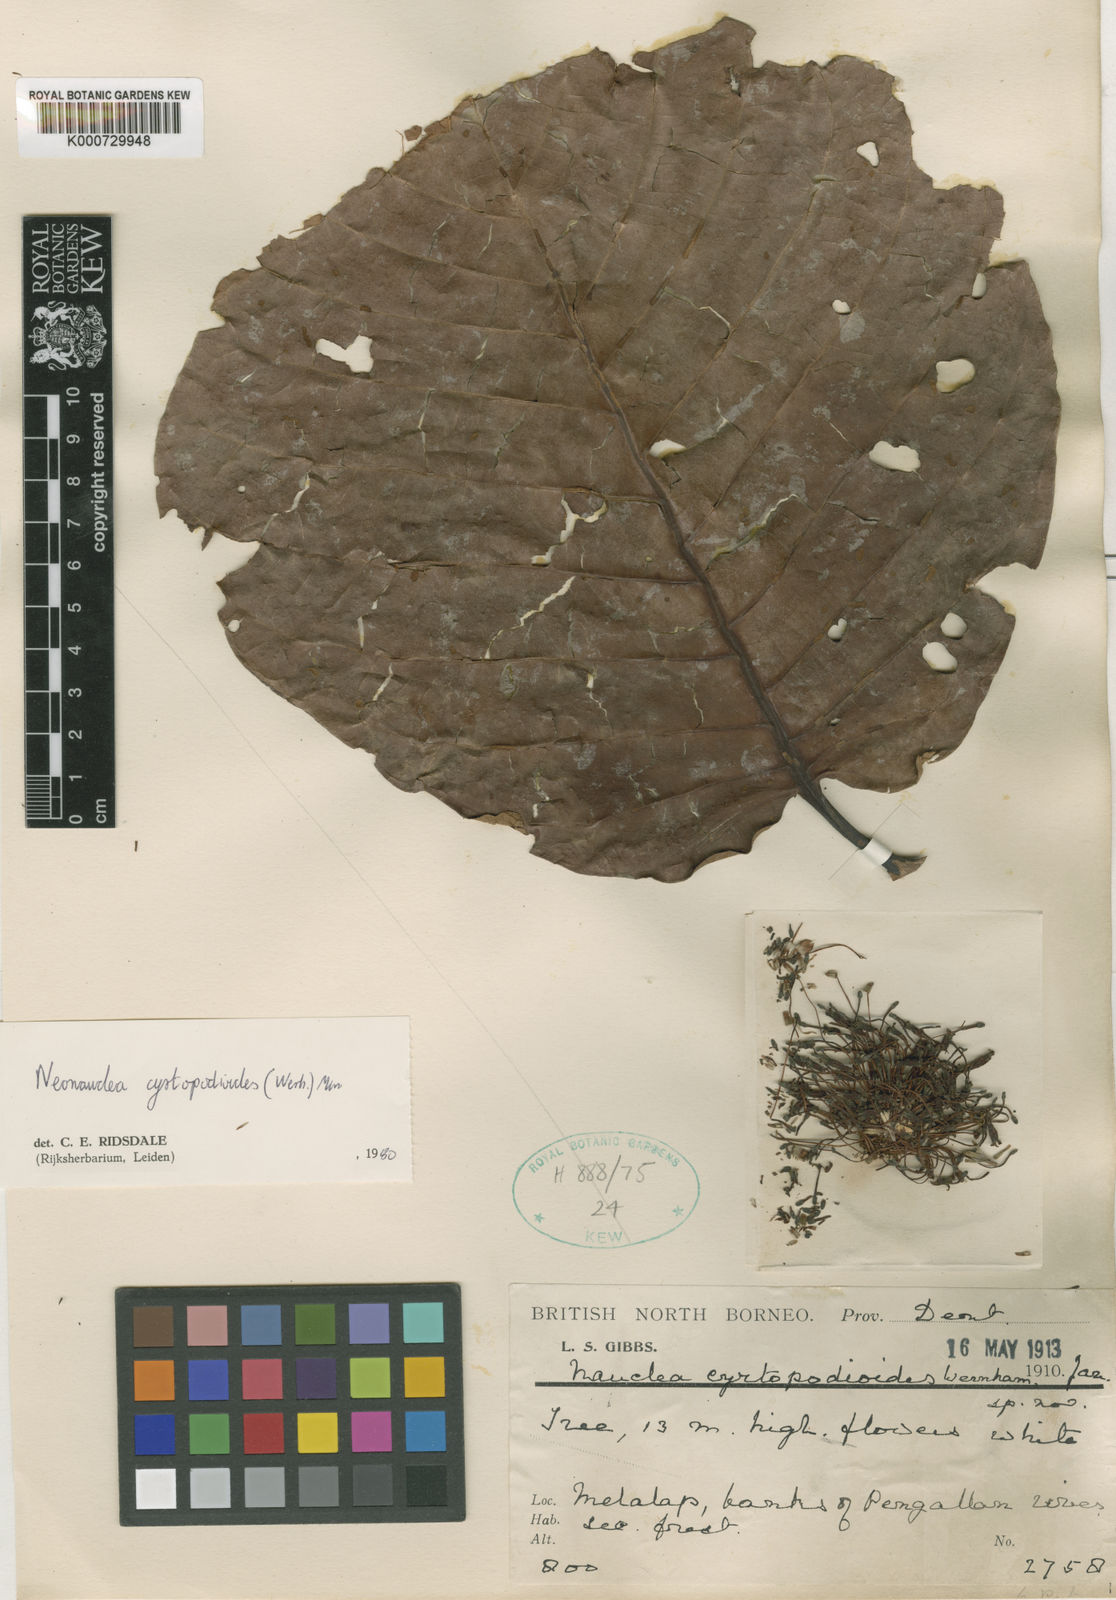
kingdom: Plantae
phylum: Tracheophyta
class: Magnoliopsida
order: Gentianales
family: Rubiaceae
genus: Neonauclea
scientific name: Neonauclea gigantea
